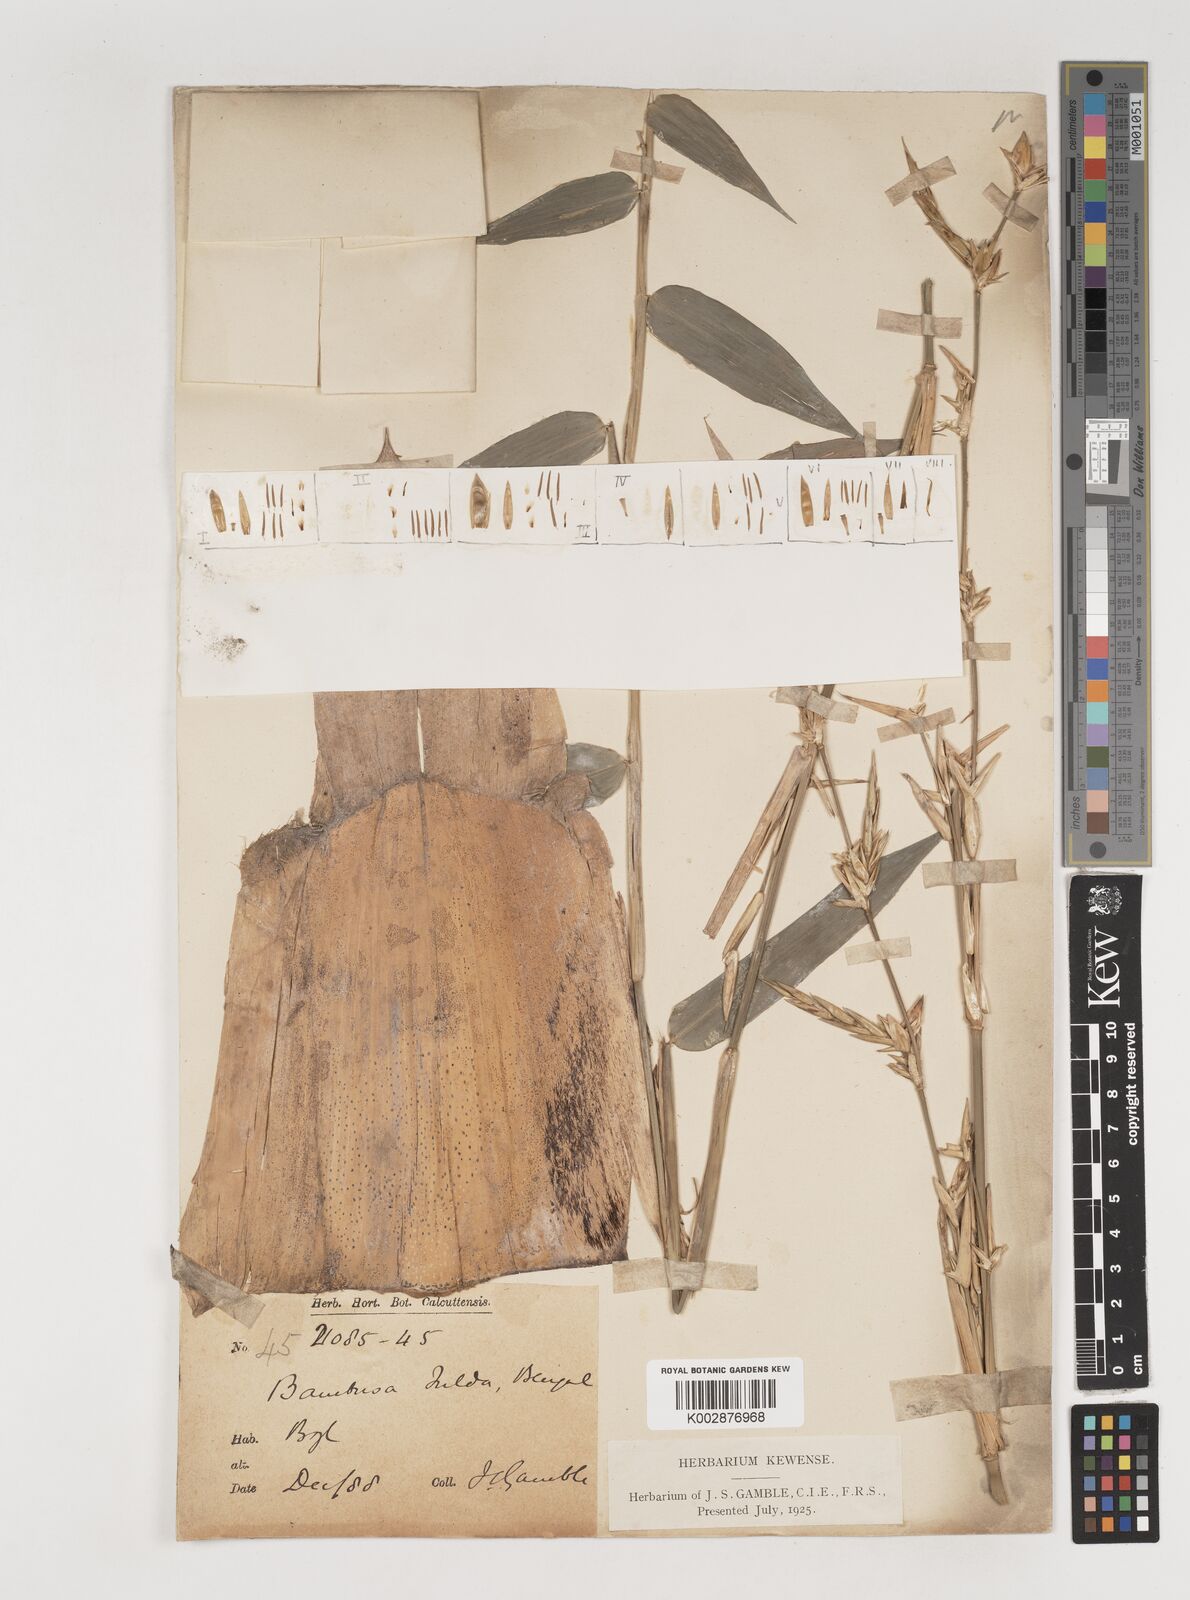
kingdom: Plantae
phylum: Tracheophyta
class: Liliopsida
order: Poales
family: Poaceae
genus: Bambusa
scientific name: Bambusa tulda
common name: Bengal bamboo
